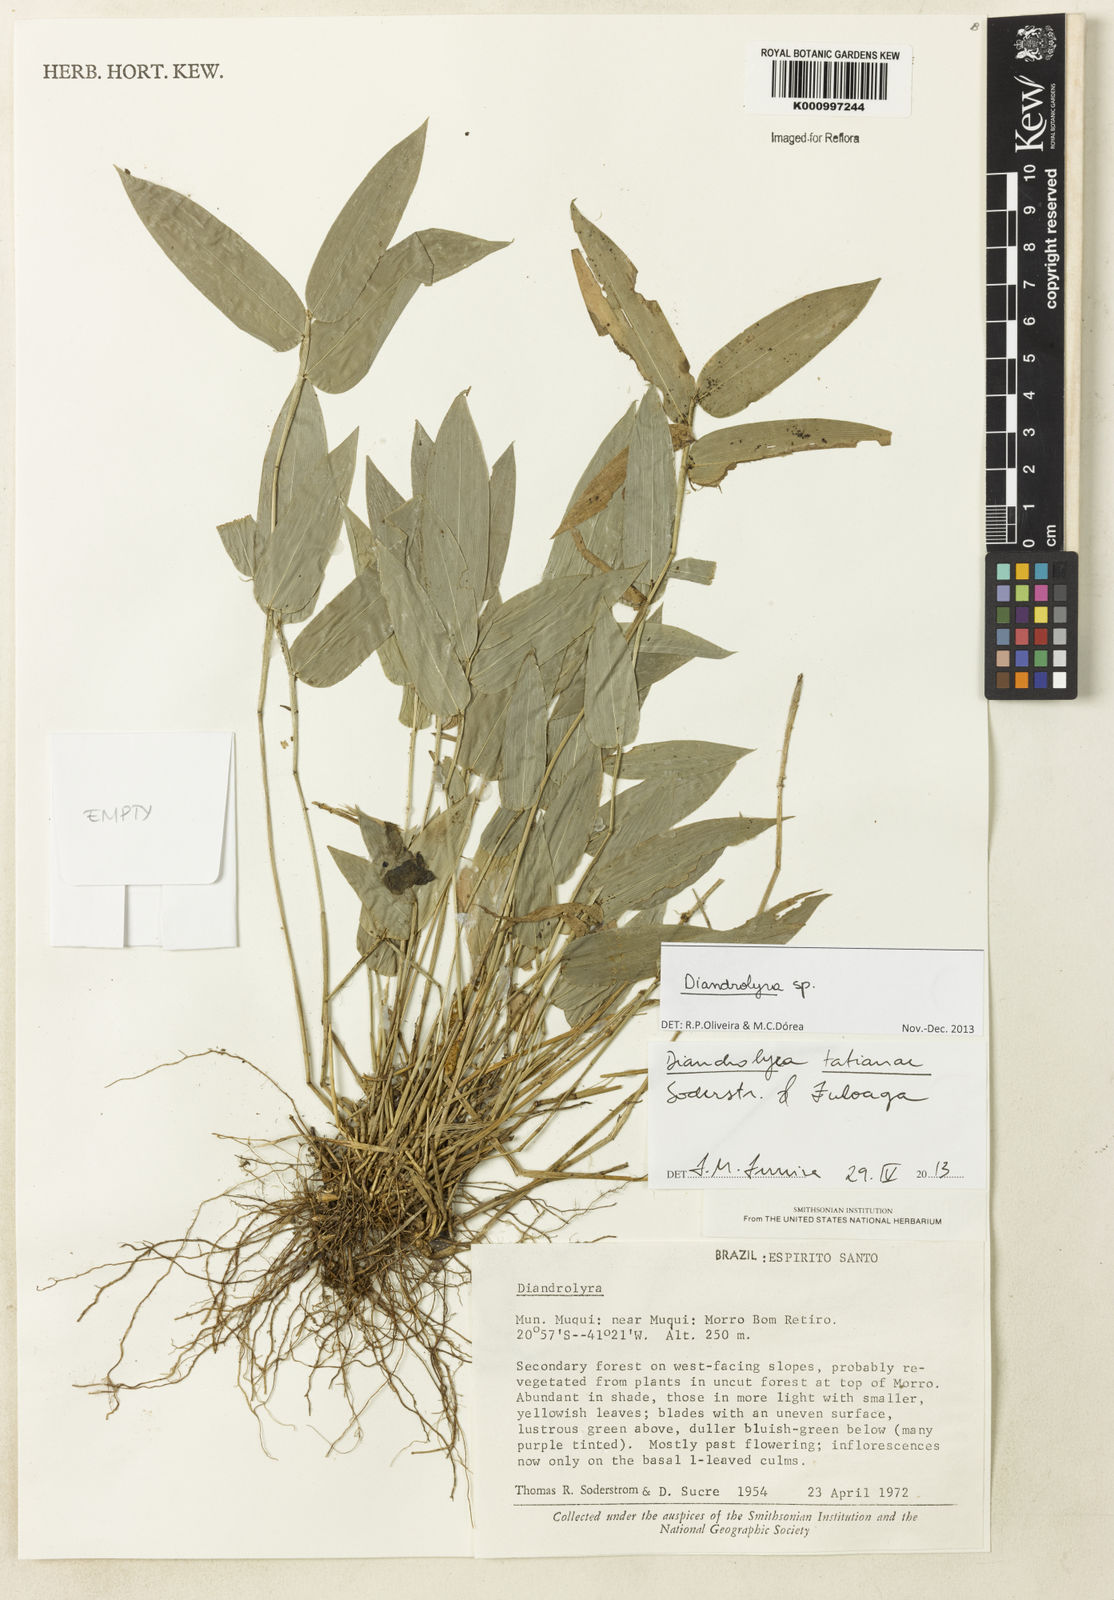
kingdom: Plantae
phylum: Tracheophyta
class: Liliopsida
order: Poales
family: Poaceae
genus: Diandrolyra
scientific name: Diandrolyra
